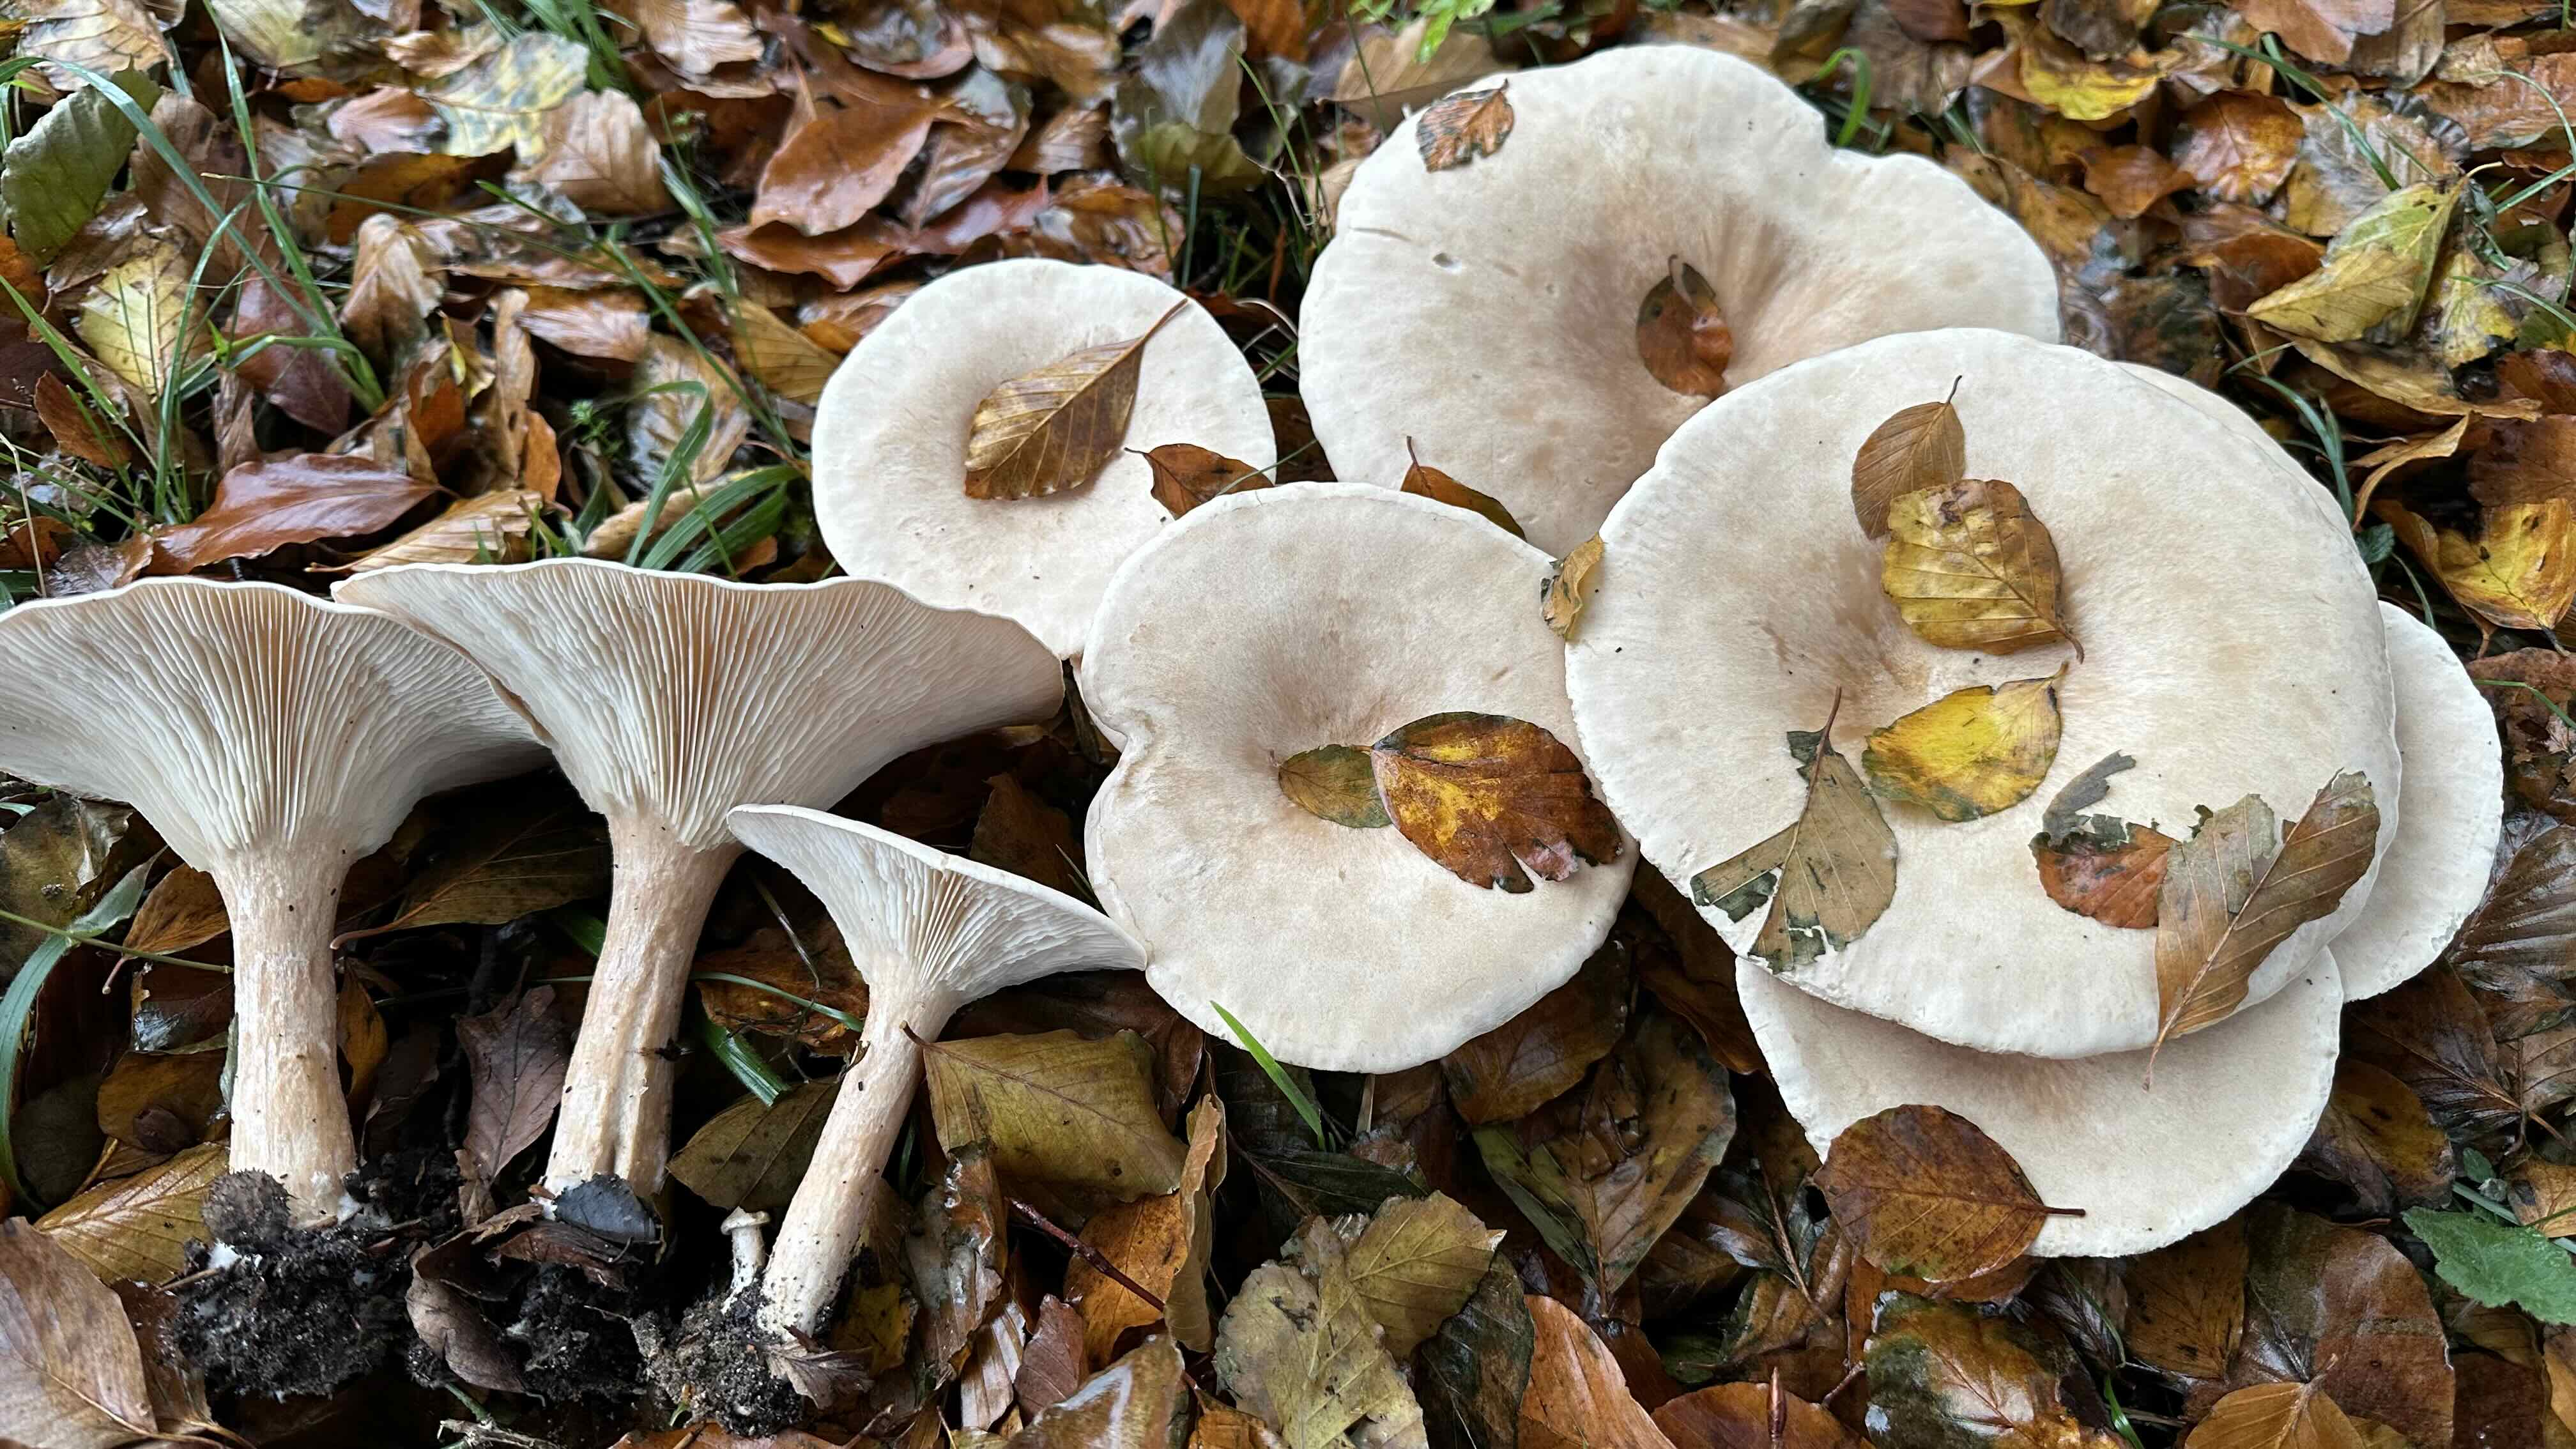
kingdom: Fungi
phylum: Basidiomycota
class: Agaricomycetes
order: Agaricales
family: Tricholomataceae
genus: Infundibulicybe
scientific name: Infundibulicybe geotropa
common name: stor tragthat
